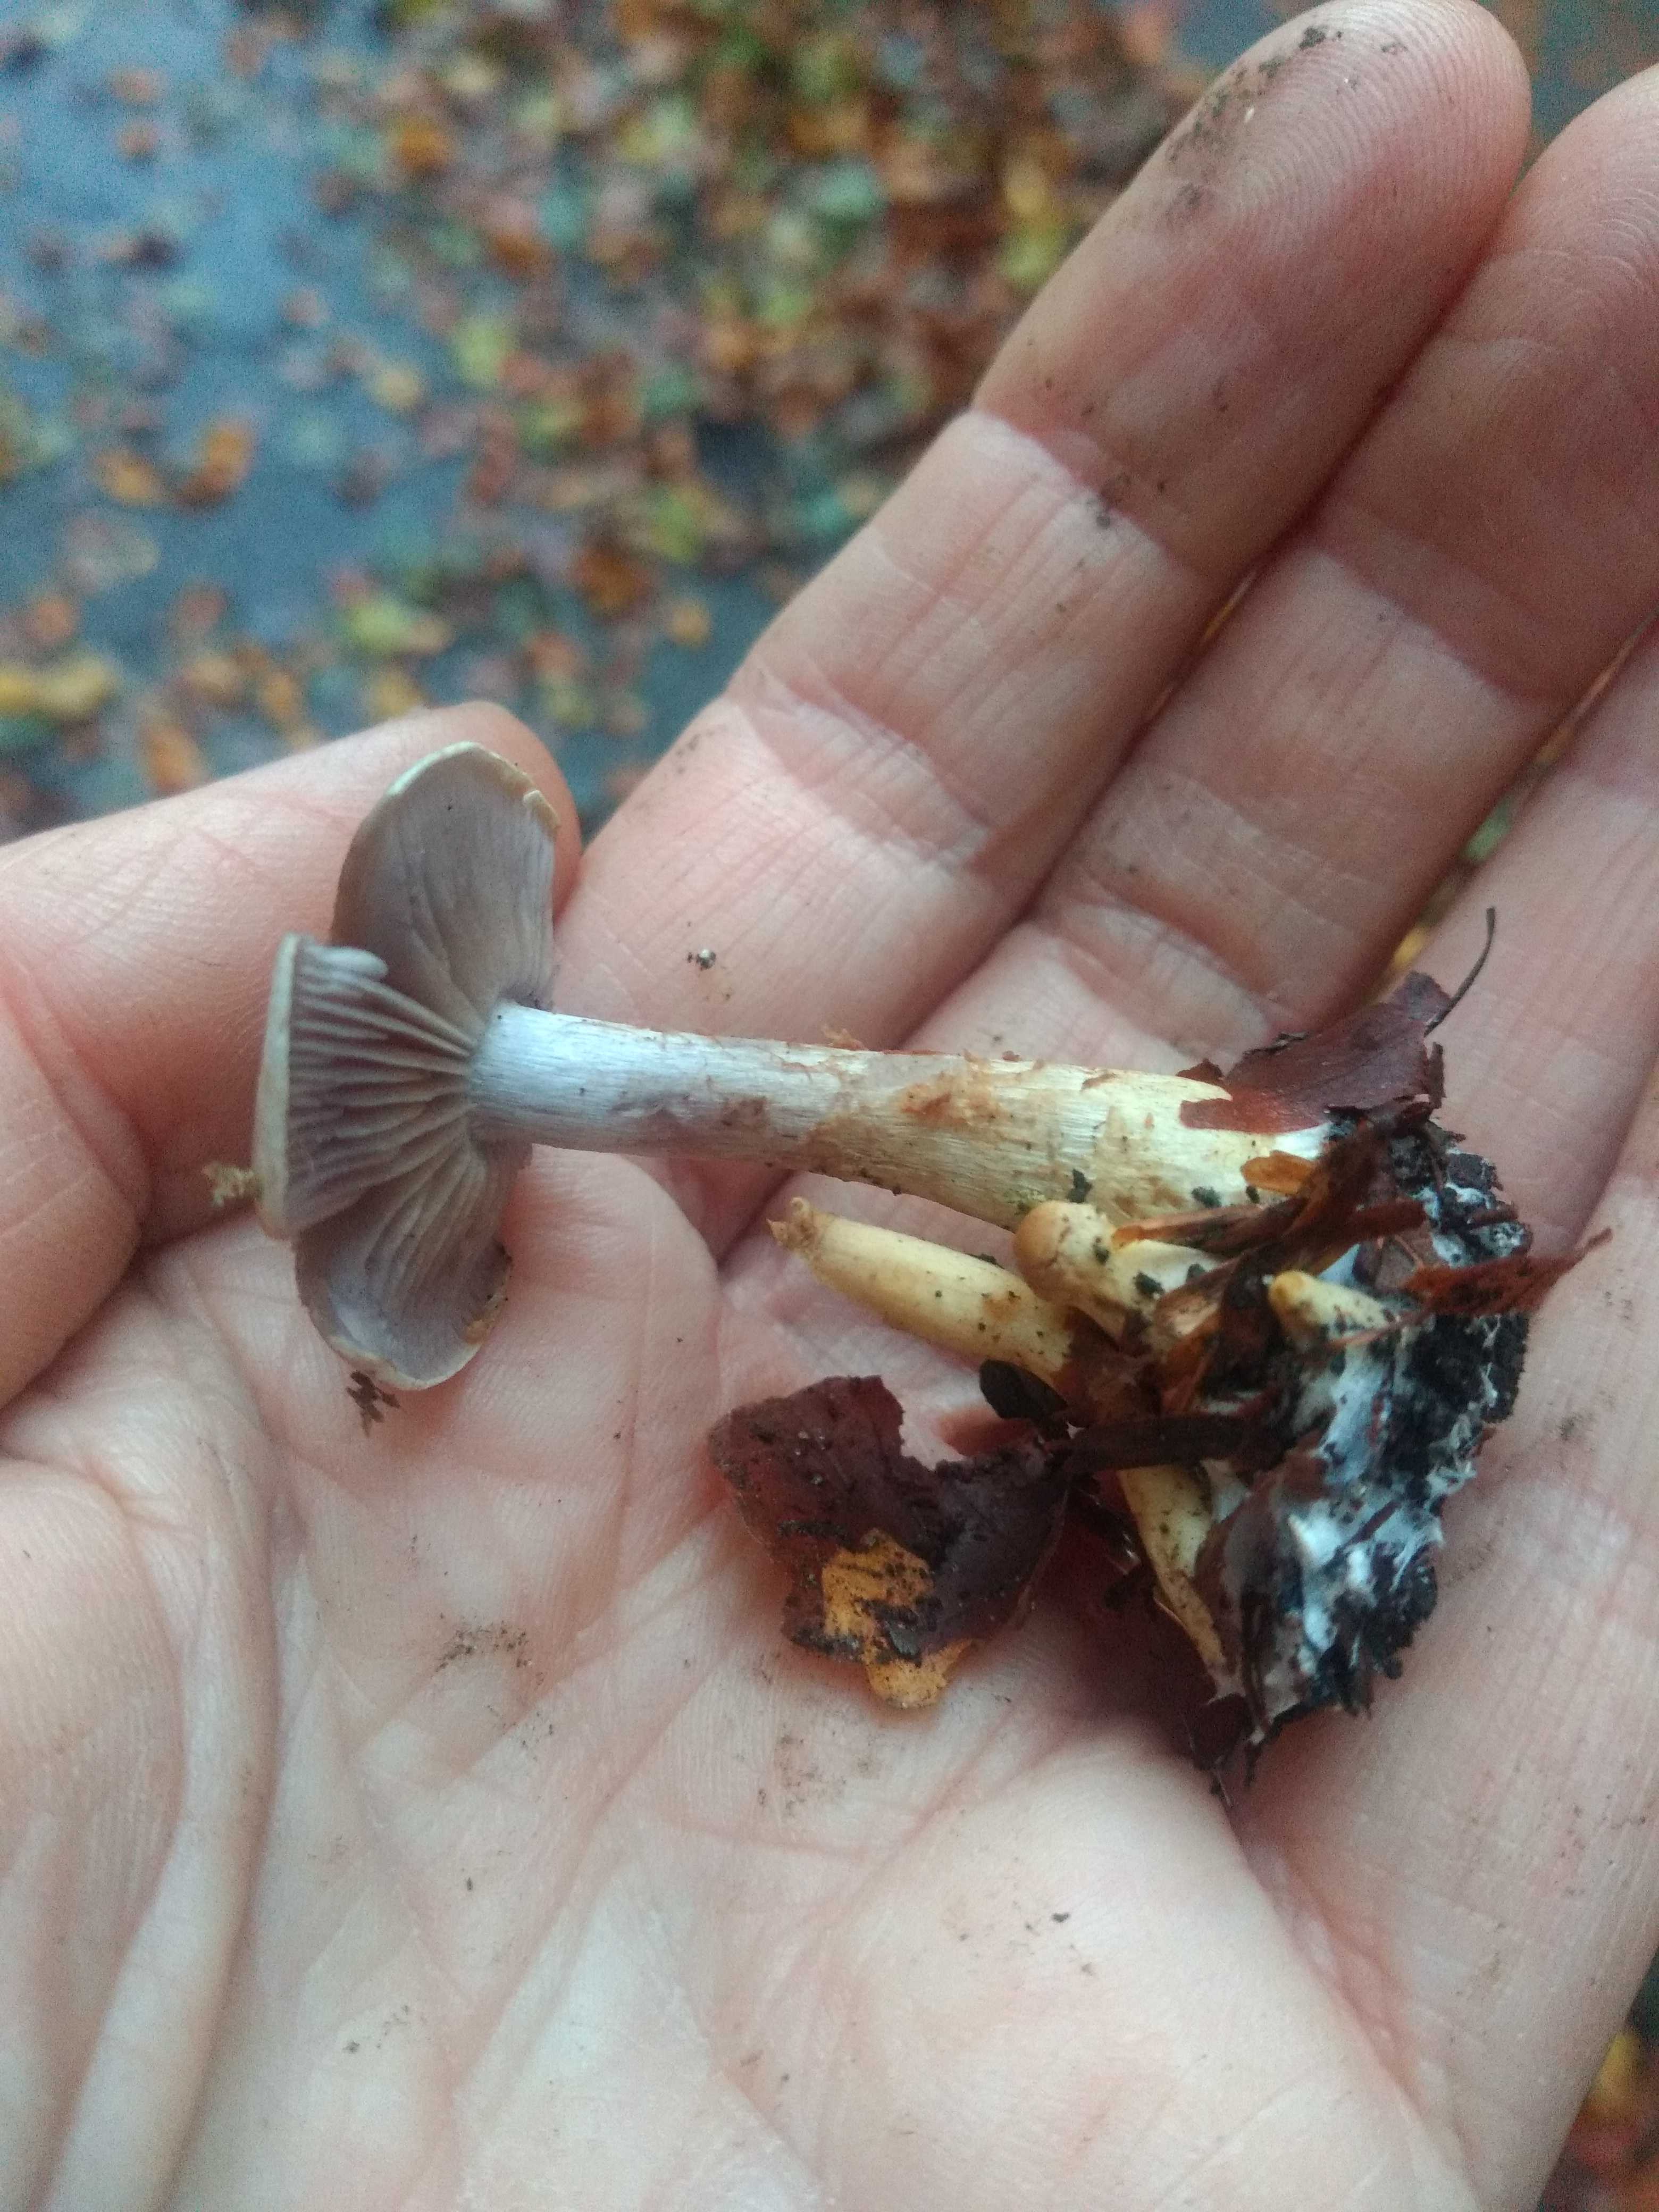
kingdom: Fungi
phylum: Basidiomycota
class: Agaricomycetes
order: Agaricales
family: Cortinariaceae
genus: Cortinarius
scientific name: Cortinarius
